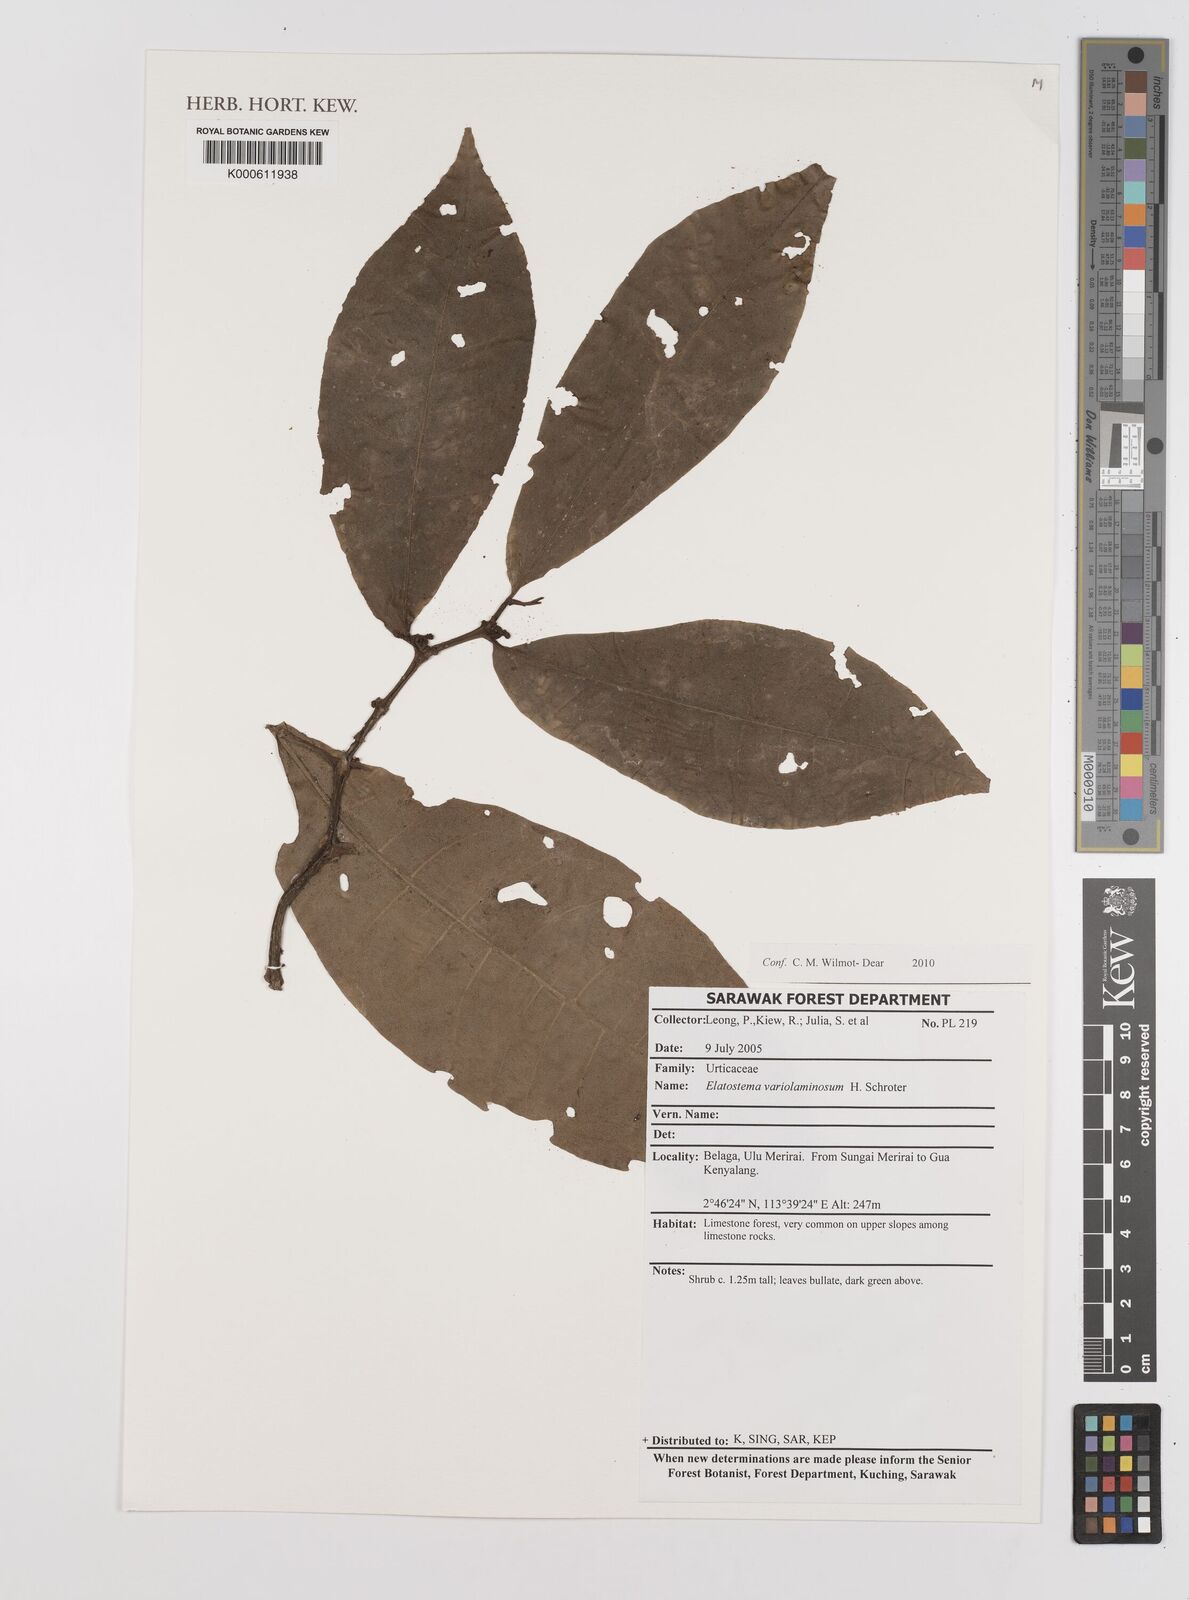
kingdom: Plantae
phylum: Tracheophyta
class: Magnoliopsida
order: Rosales
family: Urticaceae
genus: Elatostema
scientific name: Elatostema variolaminosum
